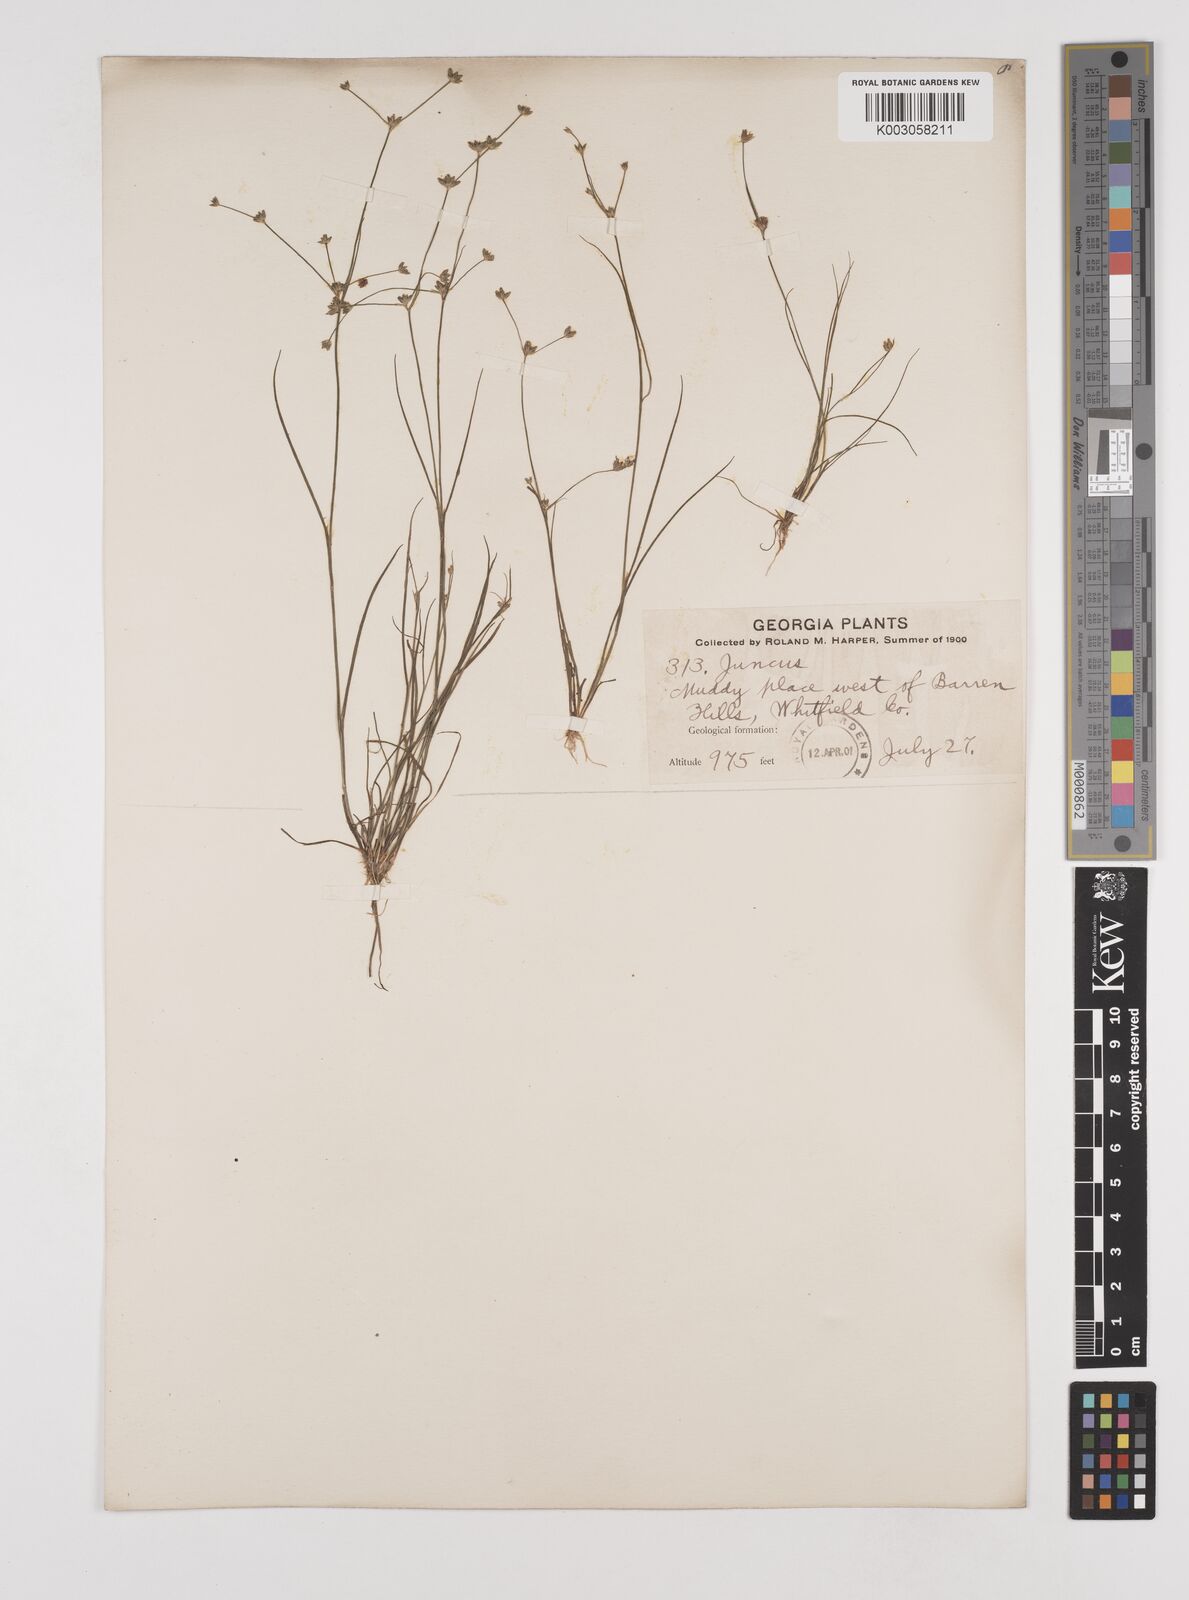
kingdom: Plantae
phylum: Tracheophyta
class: Liliopsida
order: Poales
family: Juncaceae
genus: Juncus
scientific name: Juncus
